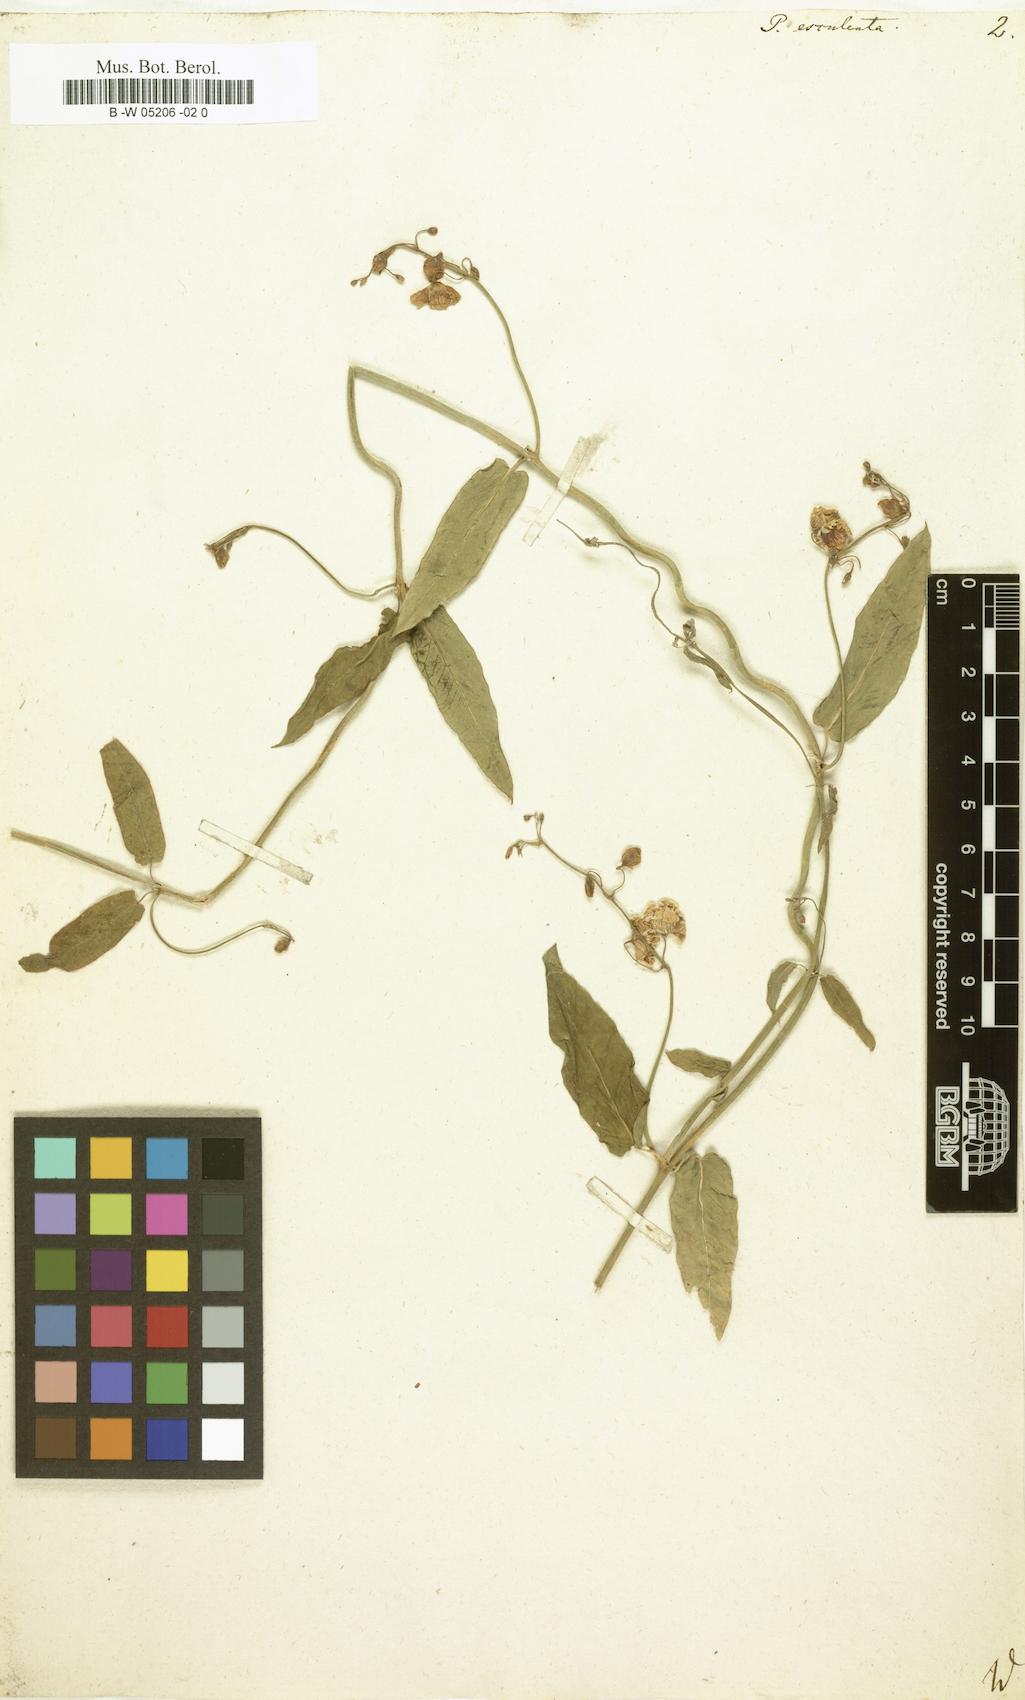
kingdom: Plantae
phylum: Tracheophyta
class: Magnoliopsida
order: Gentianales
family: Apocynaceae
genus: Oxystelma
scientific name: Oxystelma wallichii
